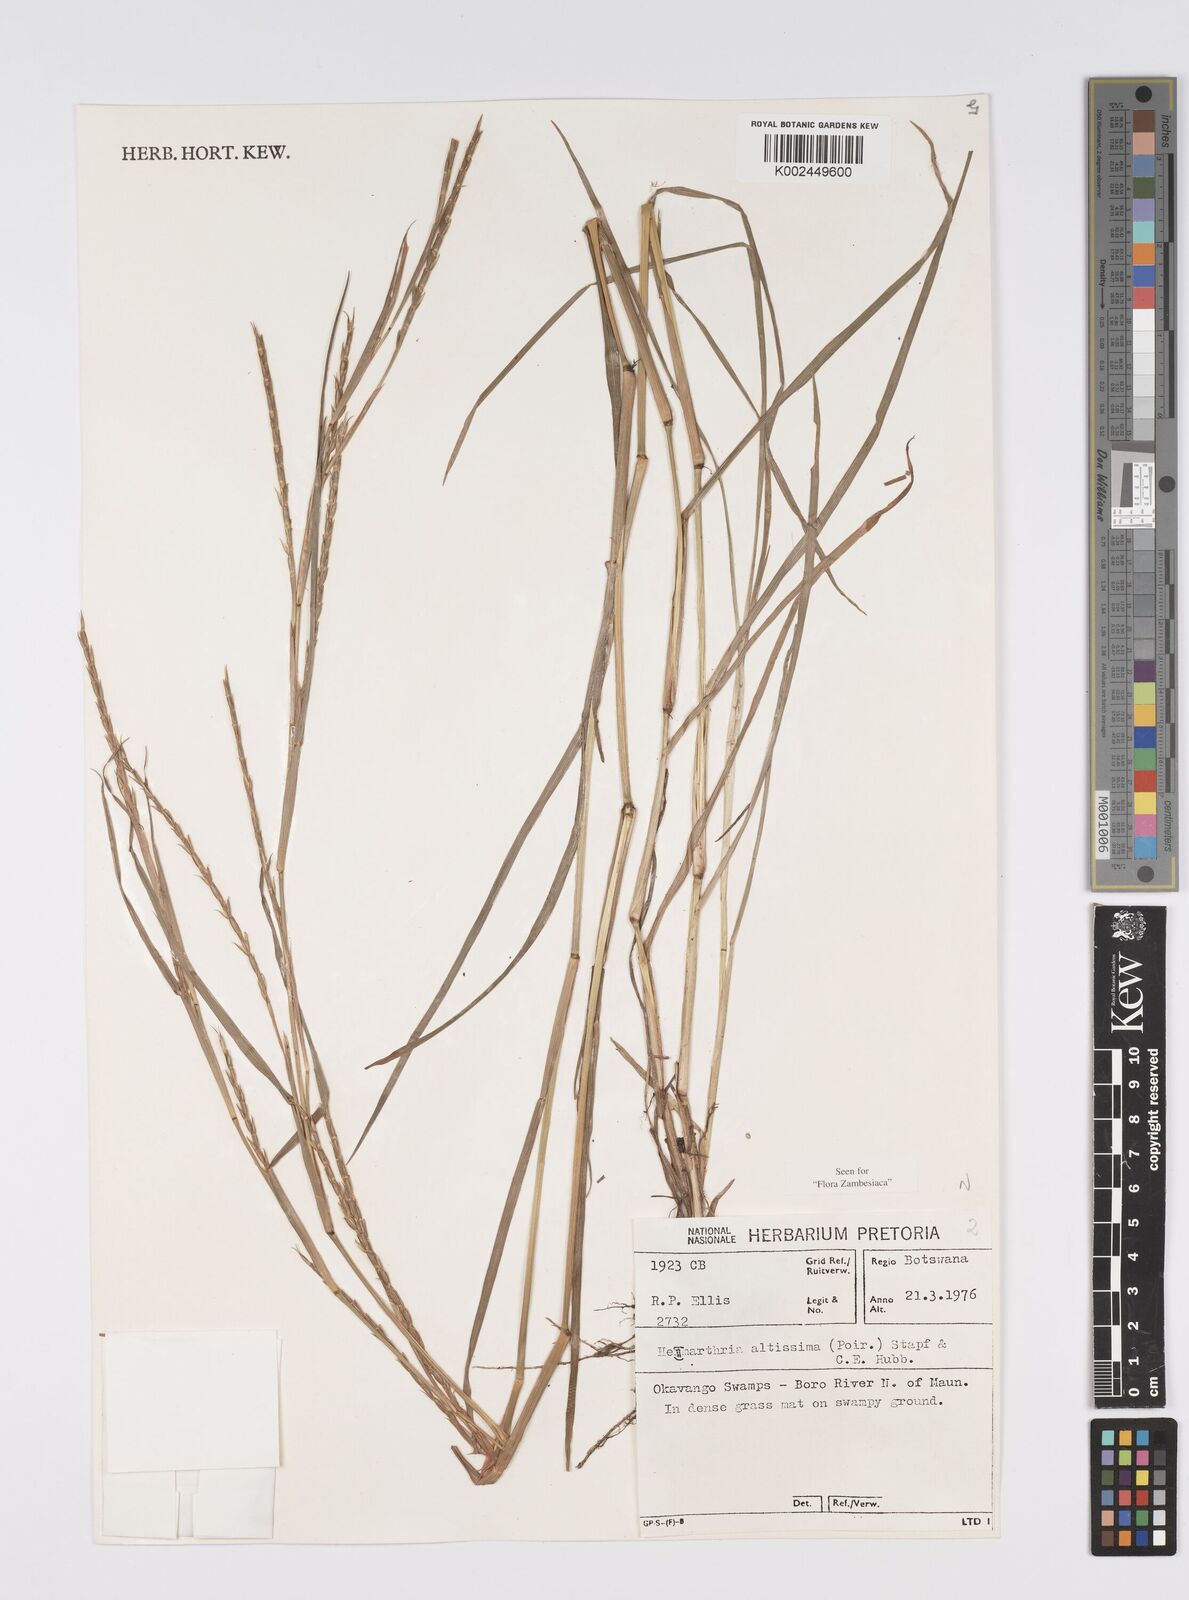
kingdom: Plantae
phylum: Tracheophyta
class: Liliopsida
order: Poales
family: Poaceae
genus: Hemarthria
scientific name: Hemarthria altissima
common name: African jointgrass
